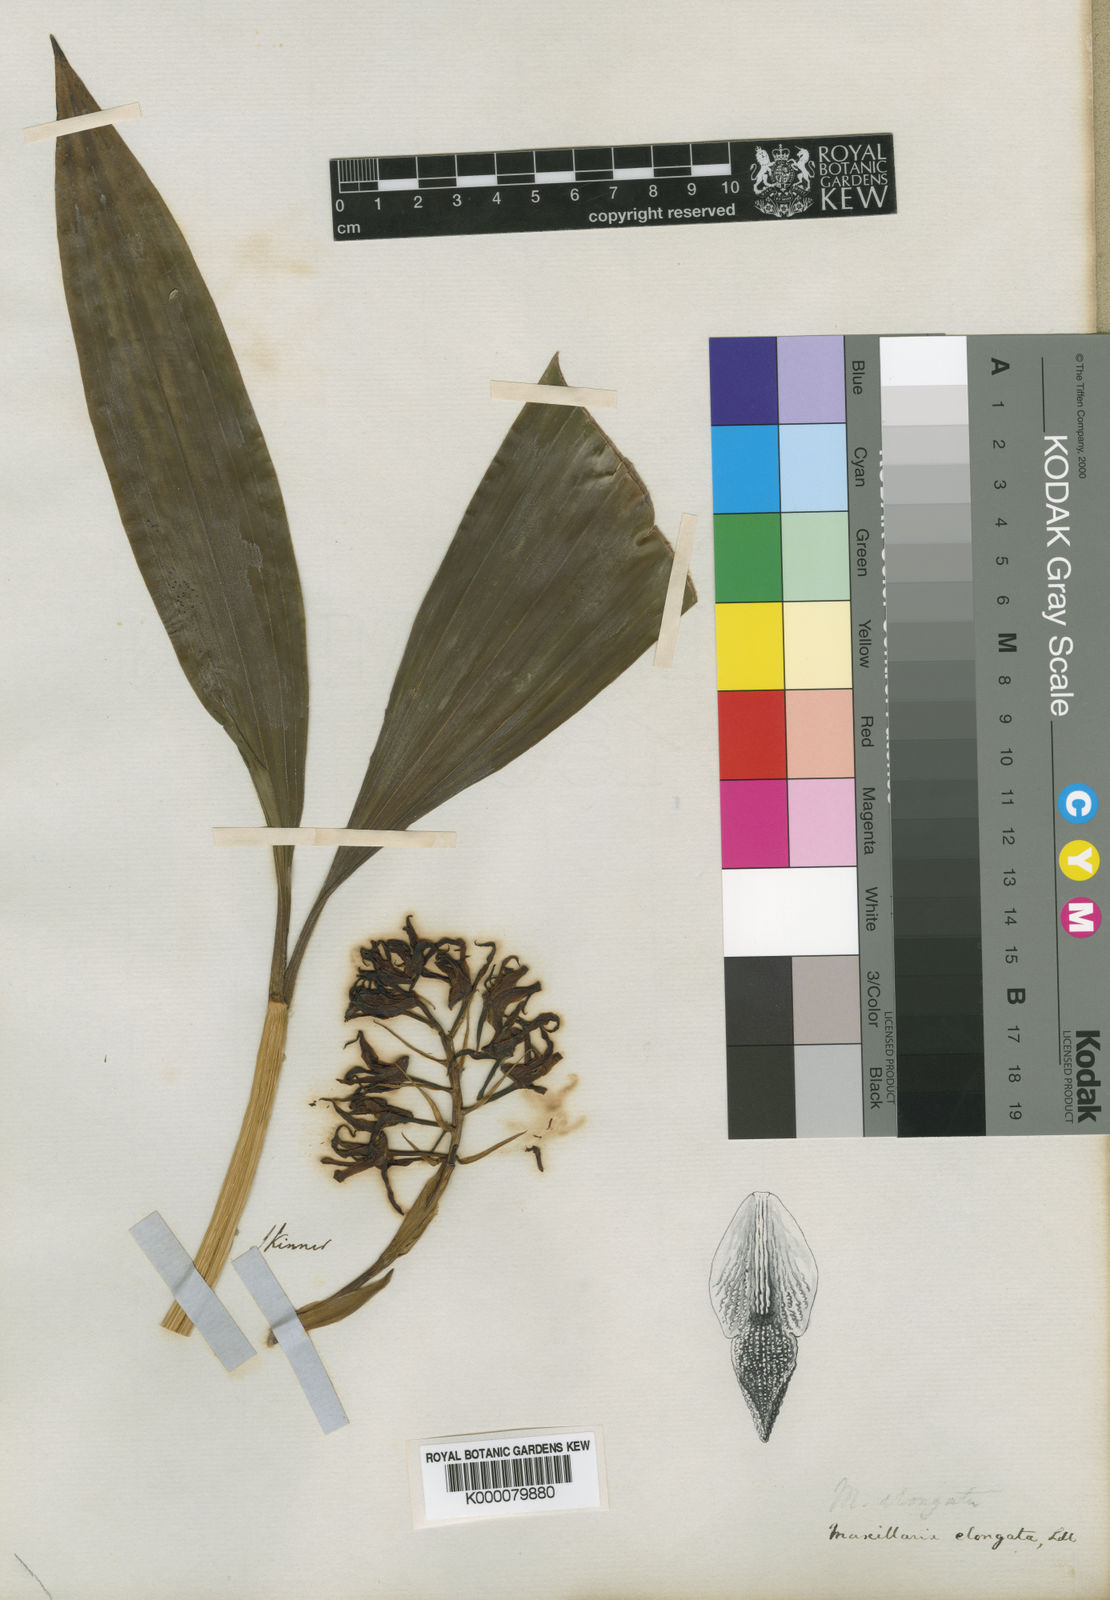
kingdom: Plantae
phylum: Tracheophyta
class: Liliopsida
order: Asparagales
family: Orchidaceae
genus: Xylobium
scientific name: Xylobium elongatum
